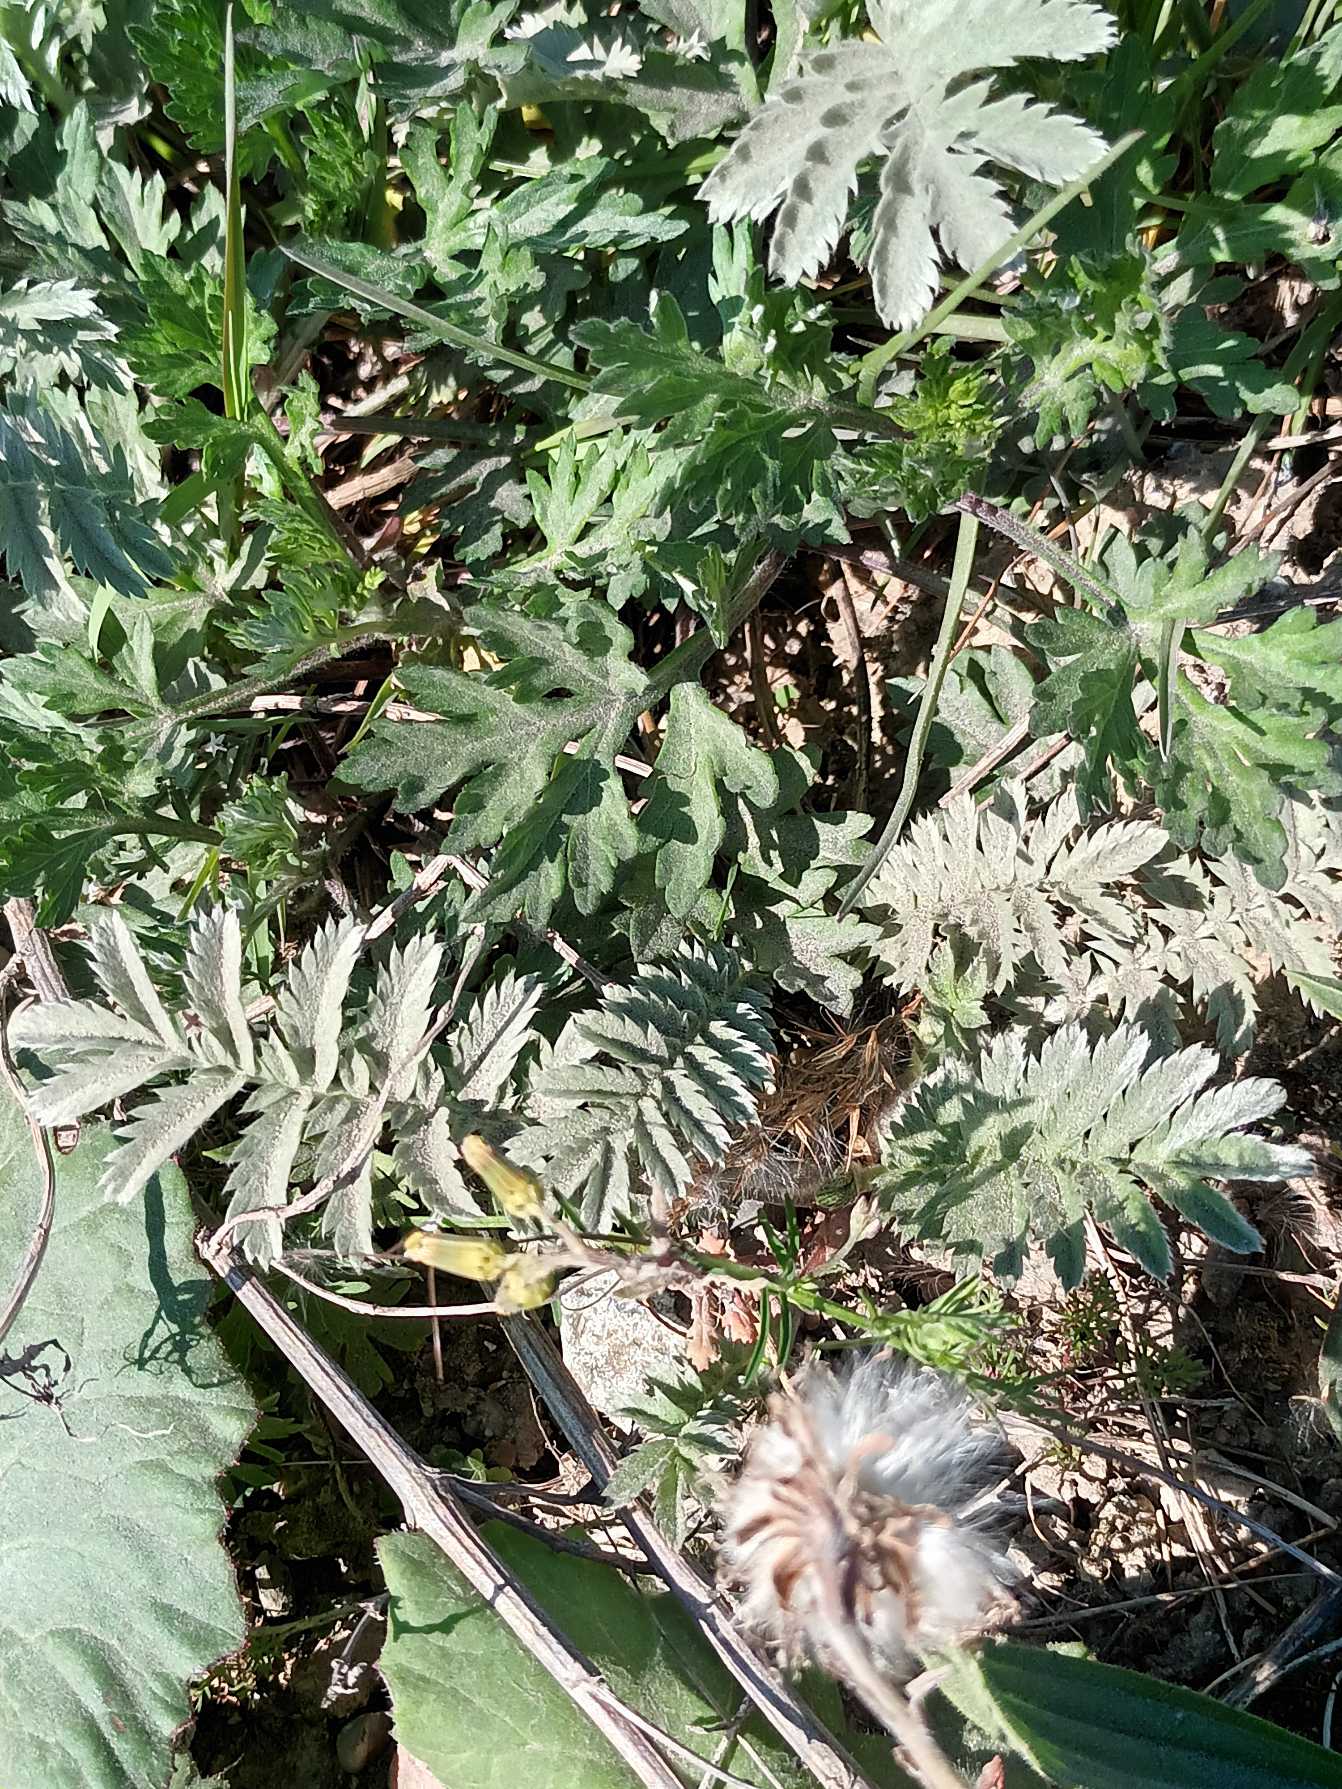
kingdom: Plantae
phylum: Tracheophyta
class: Magnoliopsida
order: Rosales
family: Rosaceae
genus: Argentina
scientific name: Argentina anserina
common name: Gåsepotentil
